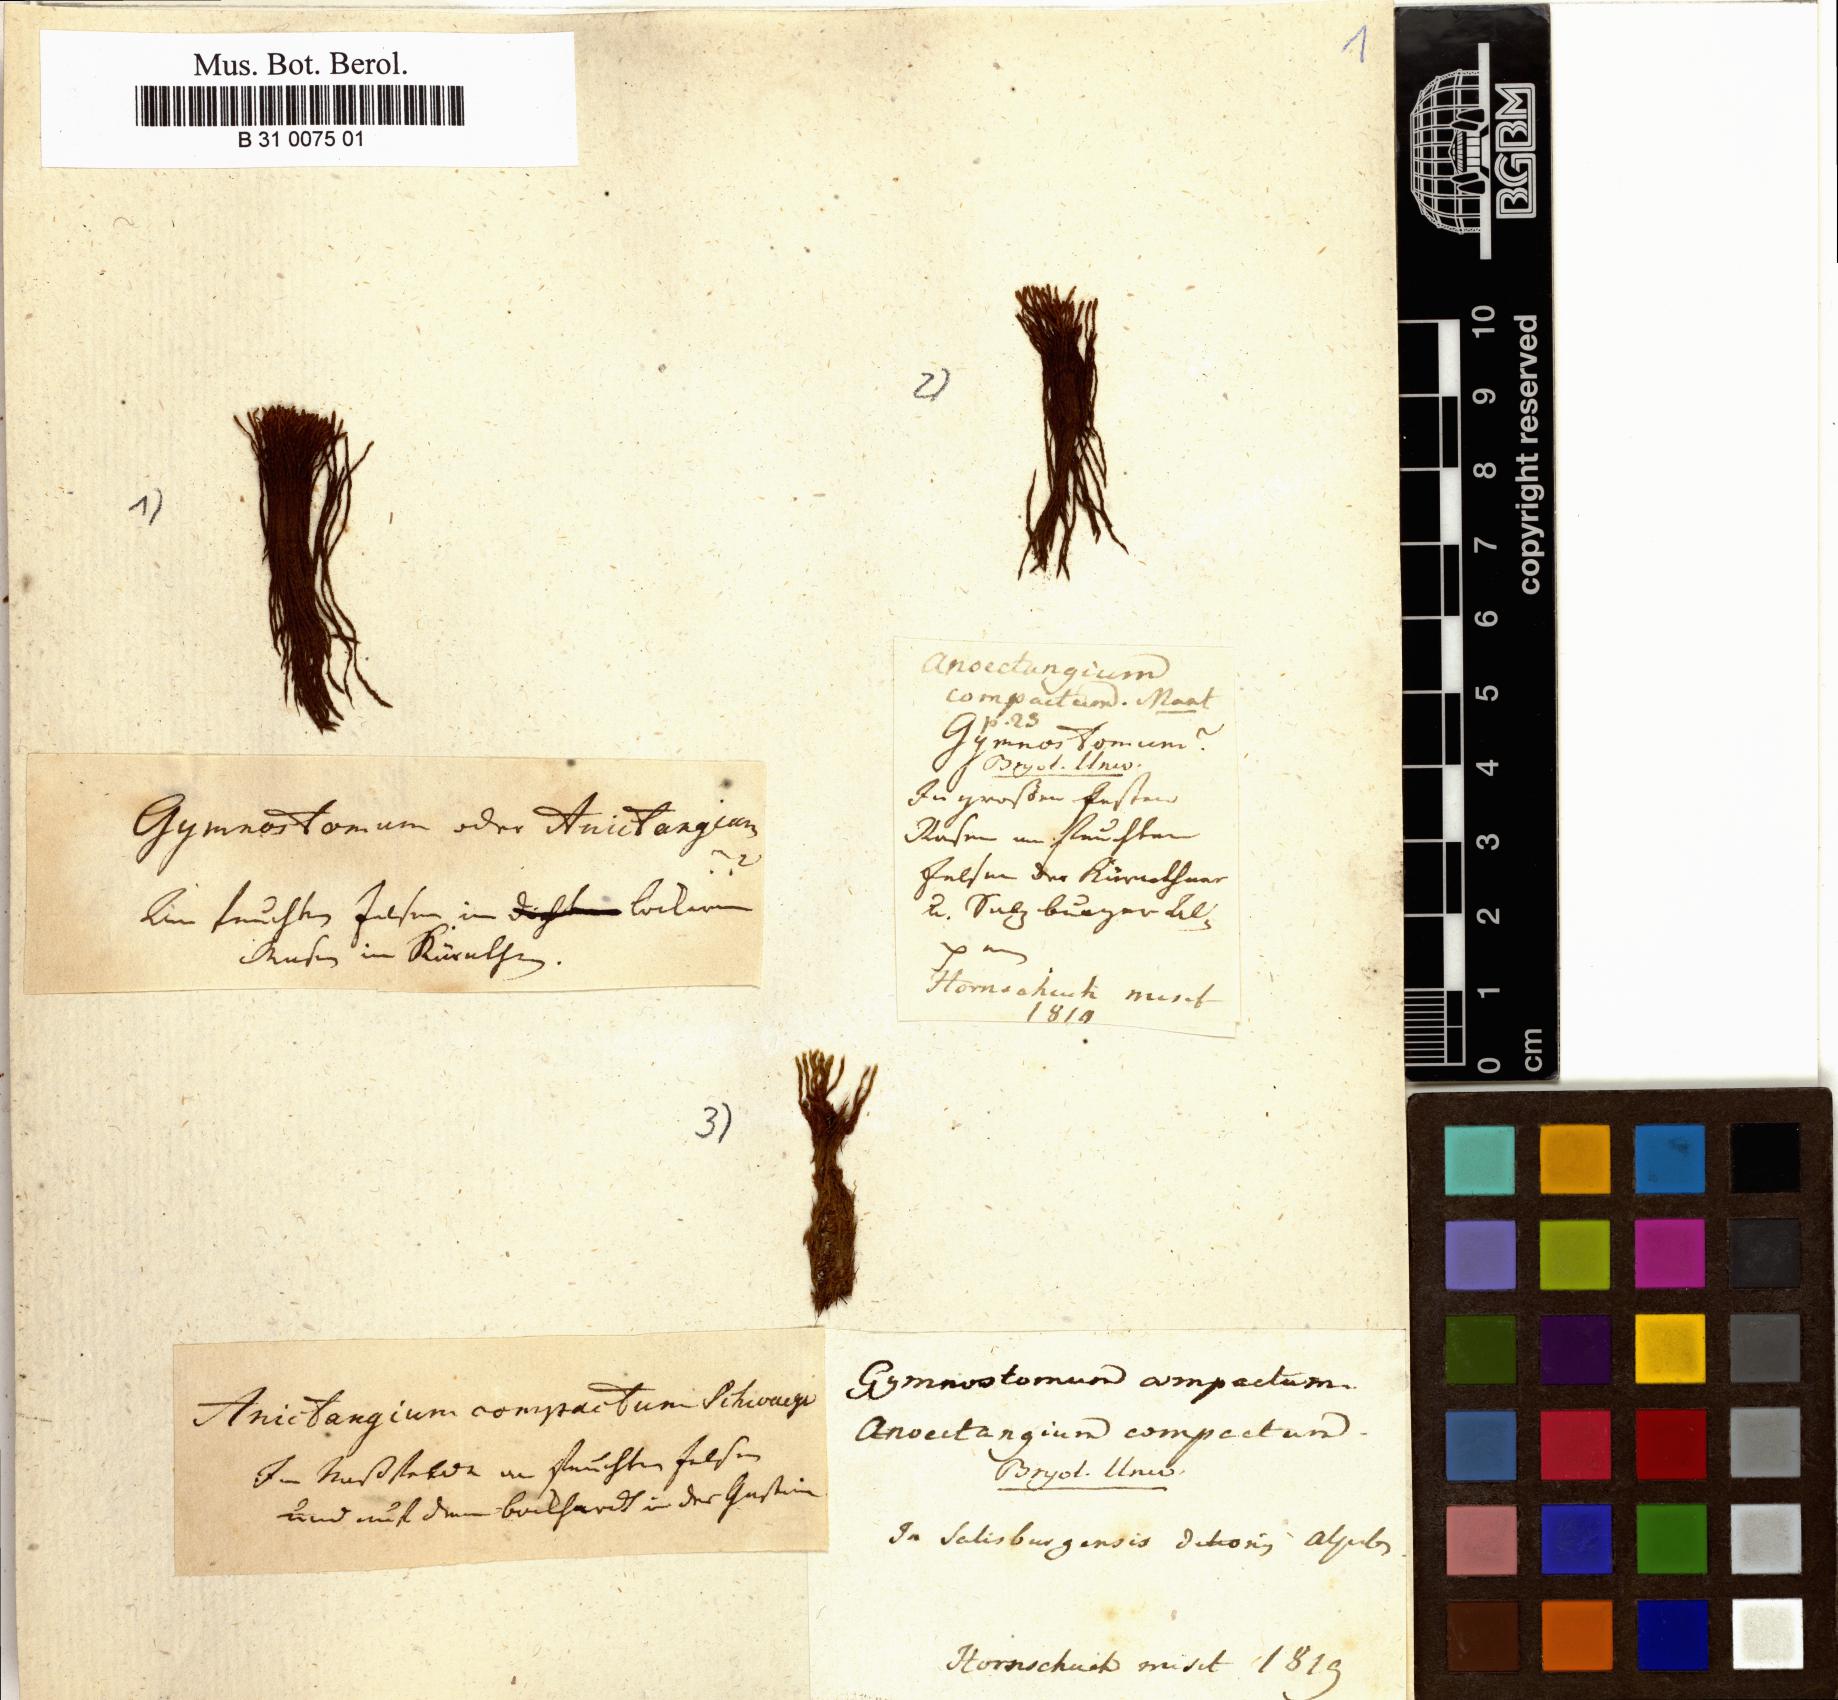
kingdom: Plantae
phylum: Bryophyta
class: Bryopsida
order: Pottiales
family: Pottiaceae
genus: Anoectangium
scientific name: Anoectangium aestivum
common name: Summer-moss
